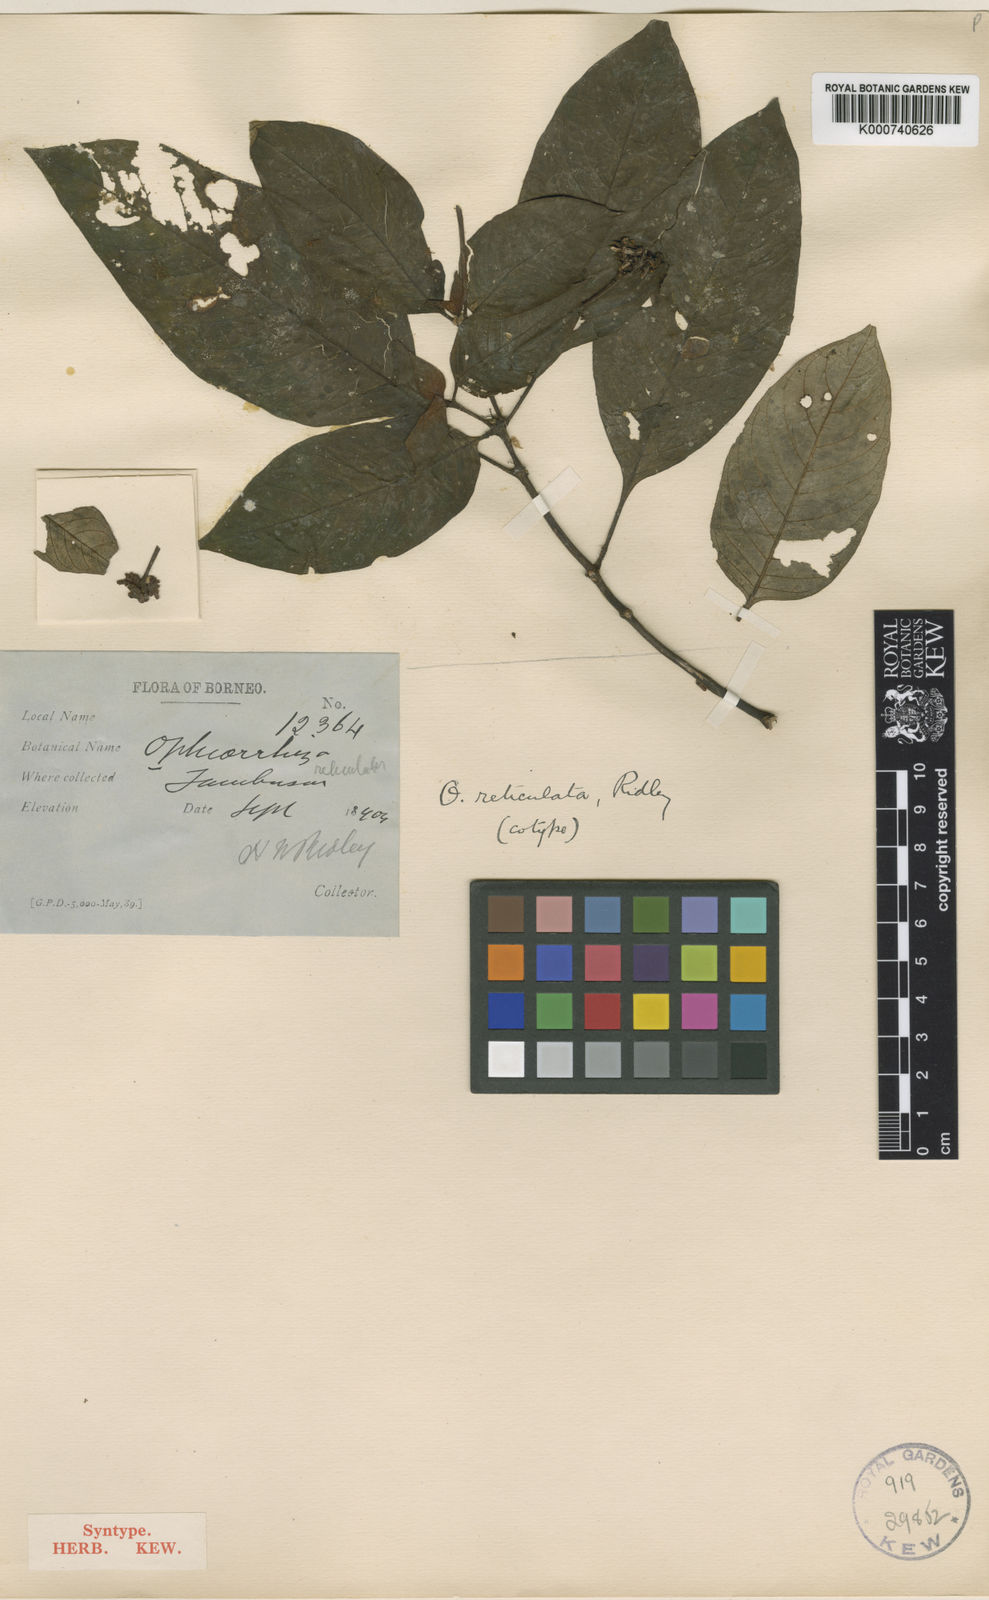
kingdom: Plantae
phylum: Tracheophyta
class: Magnoliopsida
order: Gentianales
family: Rubiaceae
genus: Ophiorrhiza
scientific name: Ophiorrhiza sarawakensis
